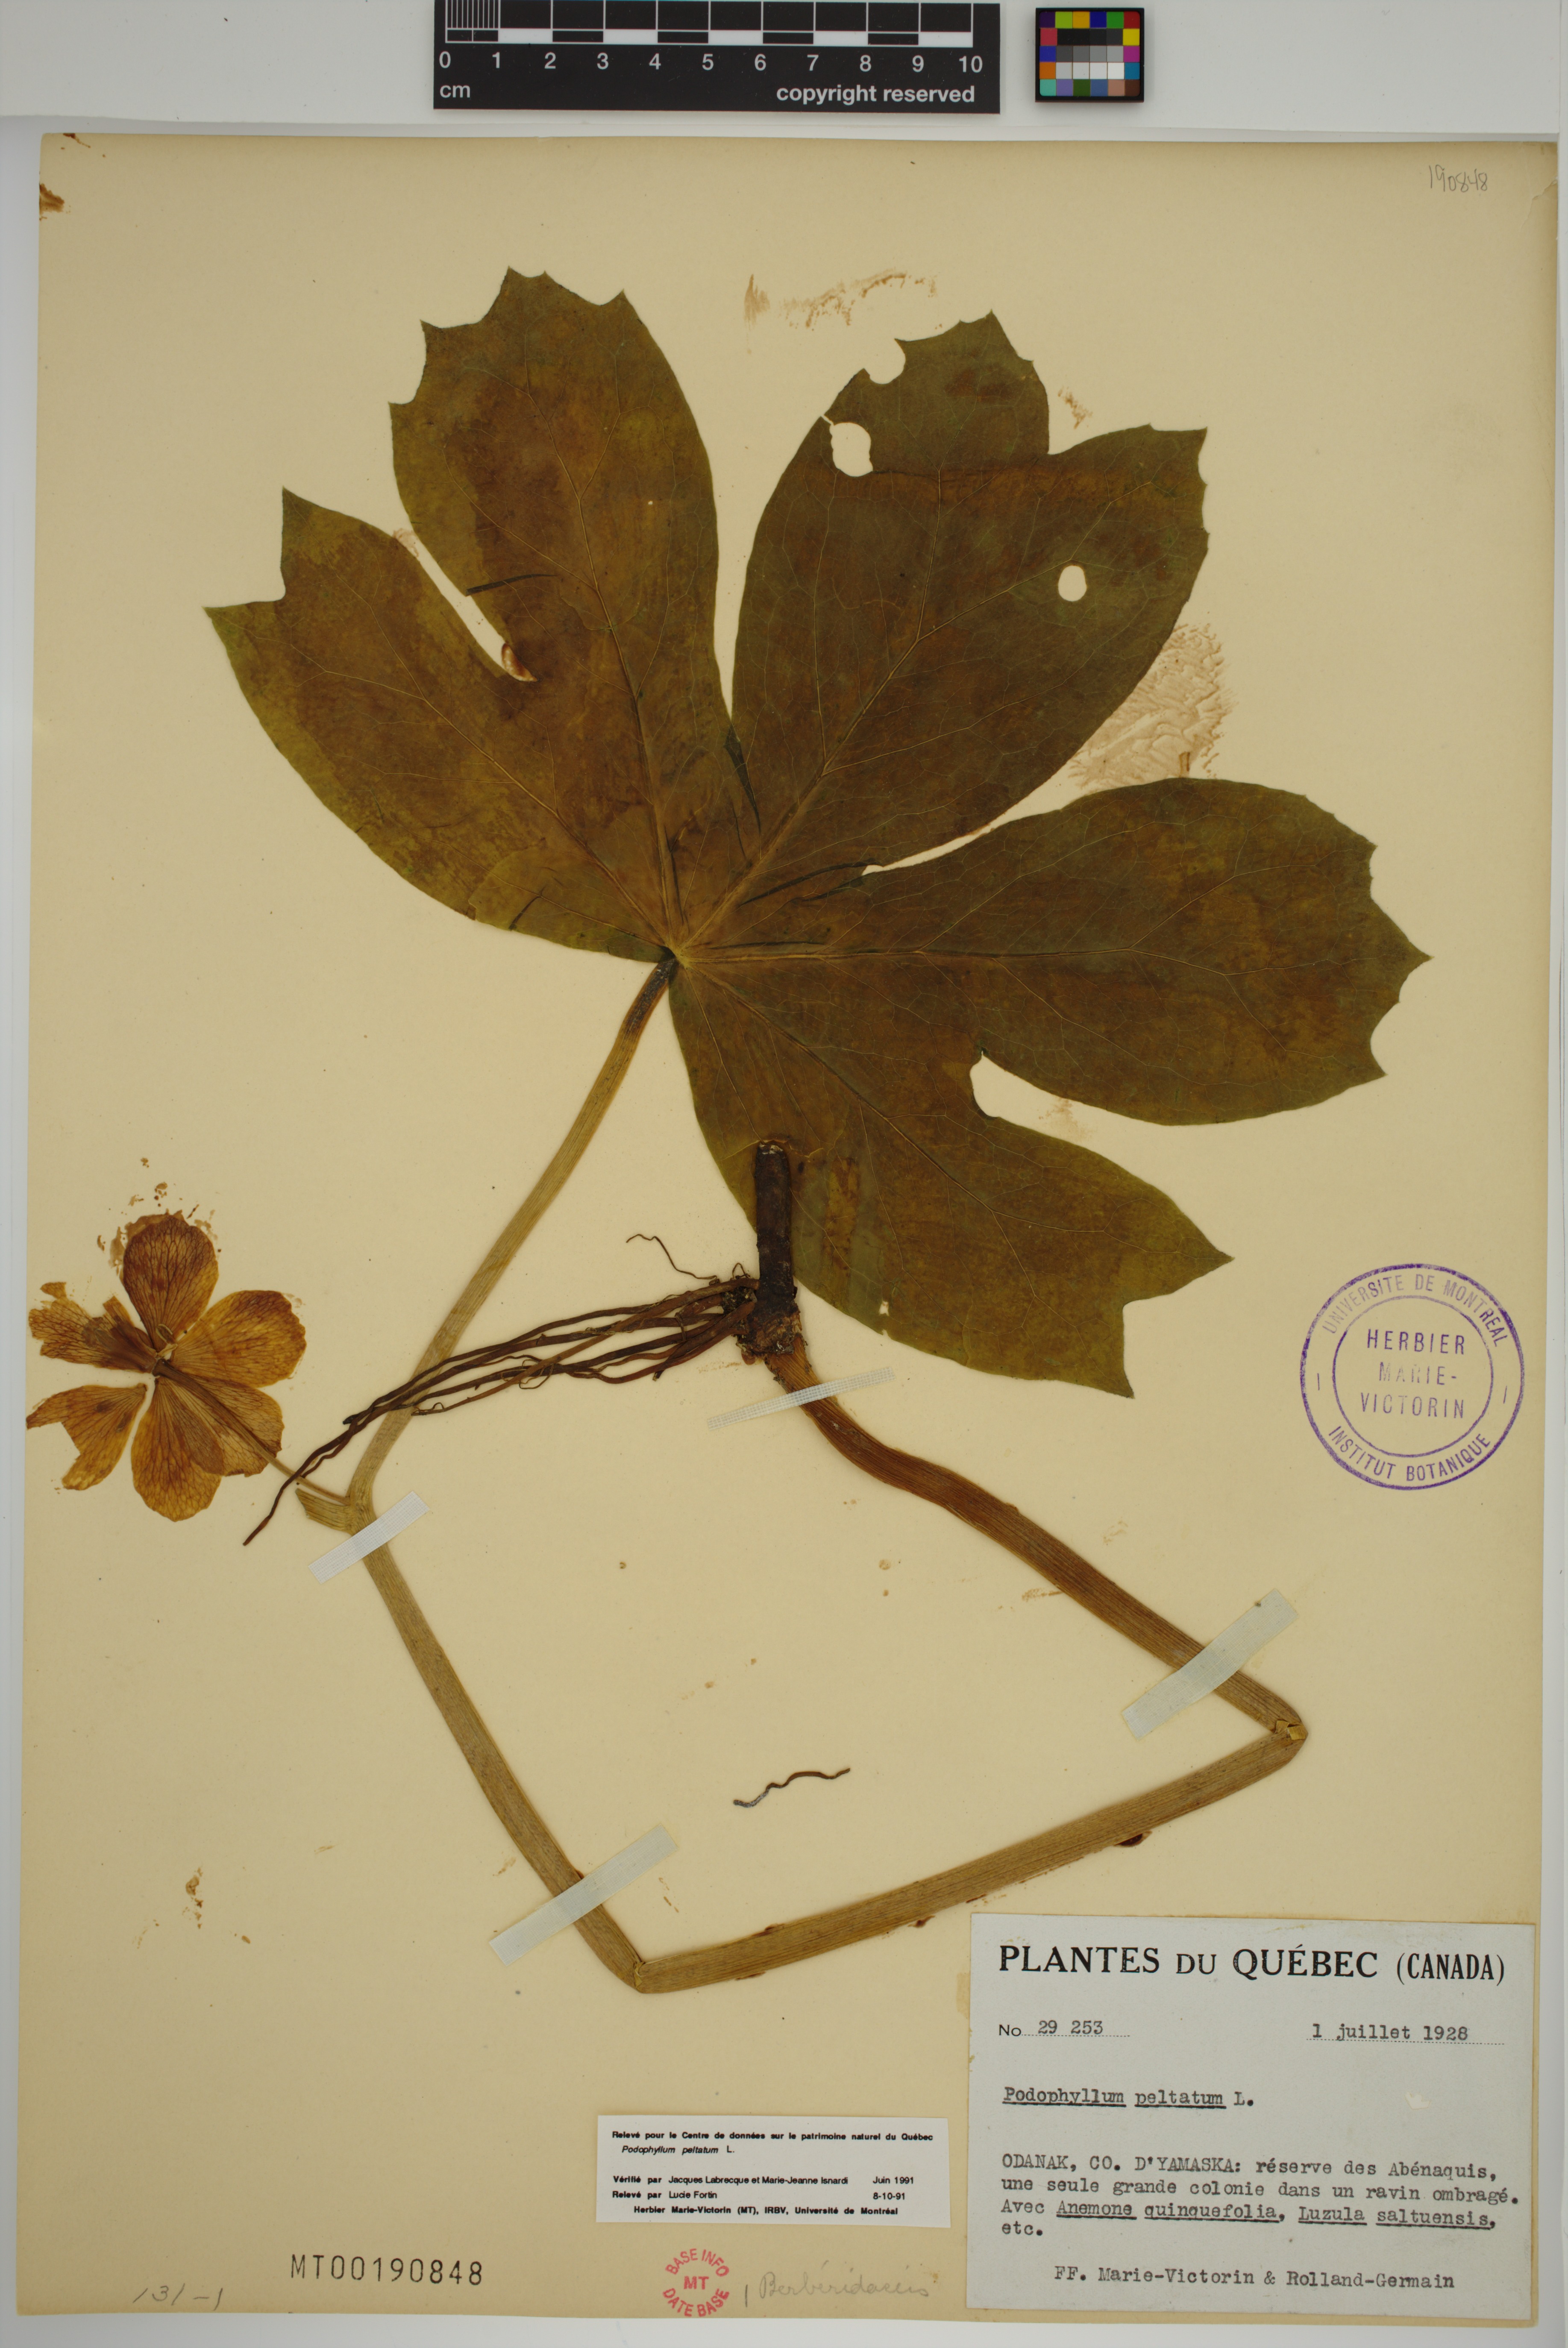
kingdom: Plantae
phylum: Tracheophyta
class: Magnoliopsida
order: Ranunculales
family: Berberidaceae
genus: Podophyllum
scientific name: Podophyllum peltatum
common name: Wild mandrake
